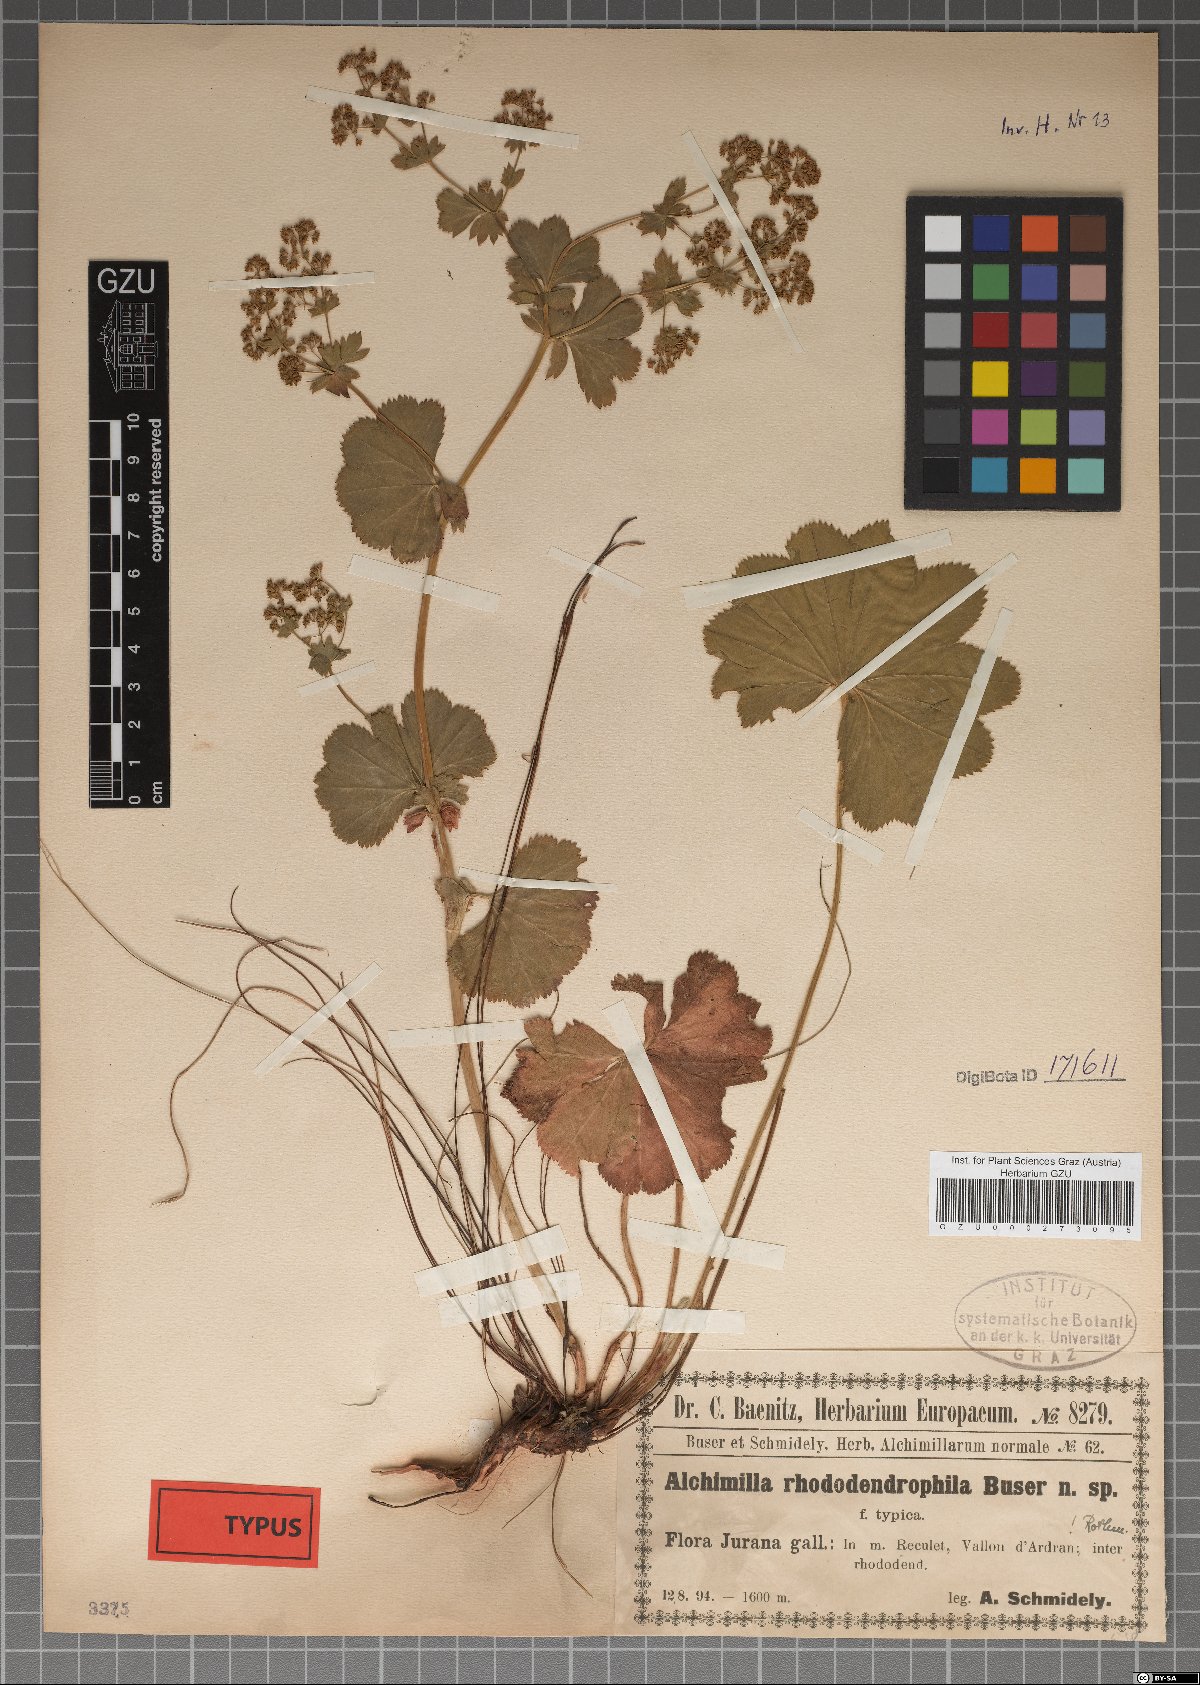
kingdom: Plantae
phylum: Tracheophyta
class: Magnoliopsida
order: Rosales
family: Rosaceae
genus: Alchemilla
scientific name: Alchemilla rhododendrophila
